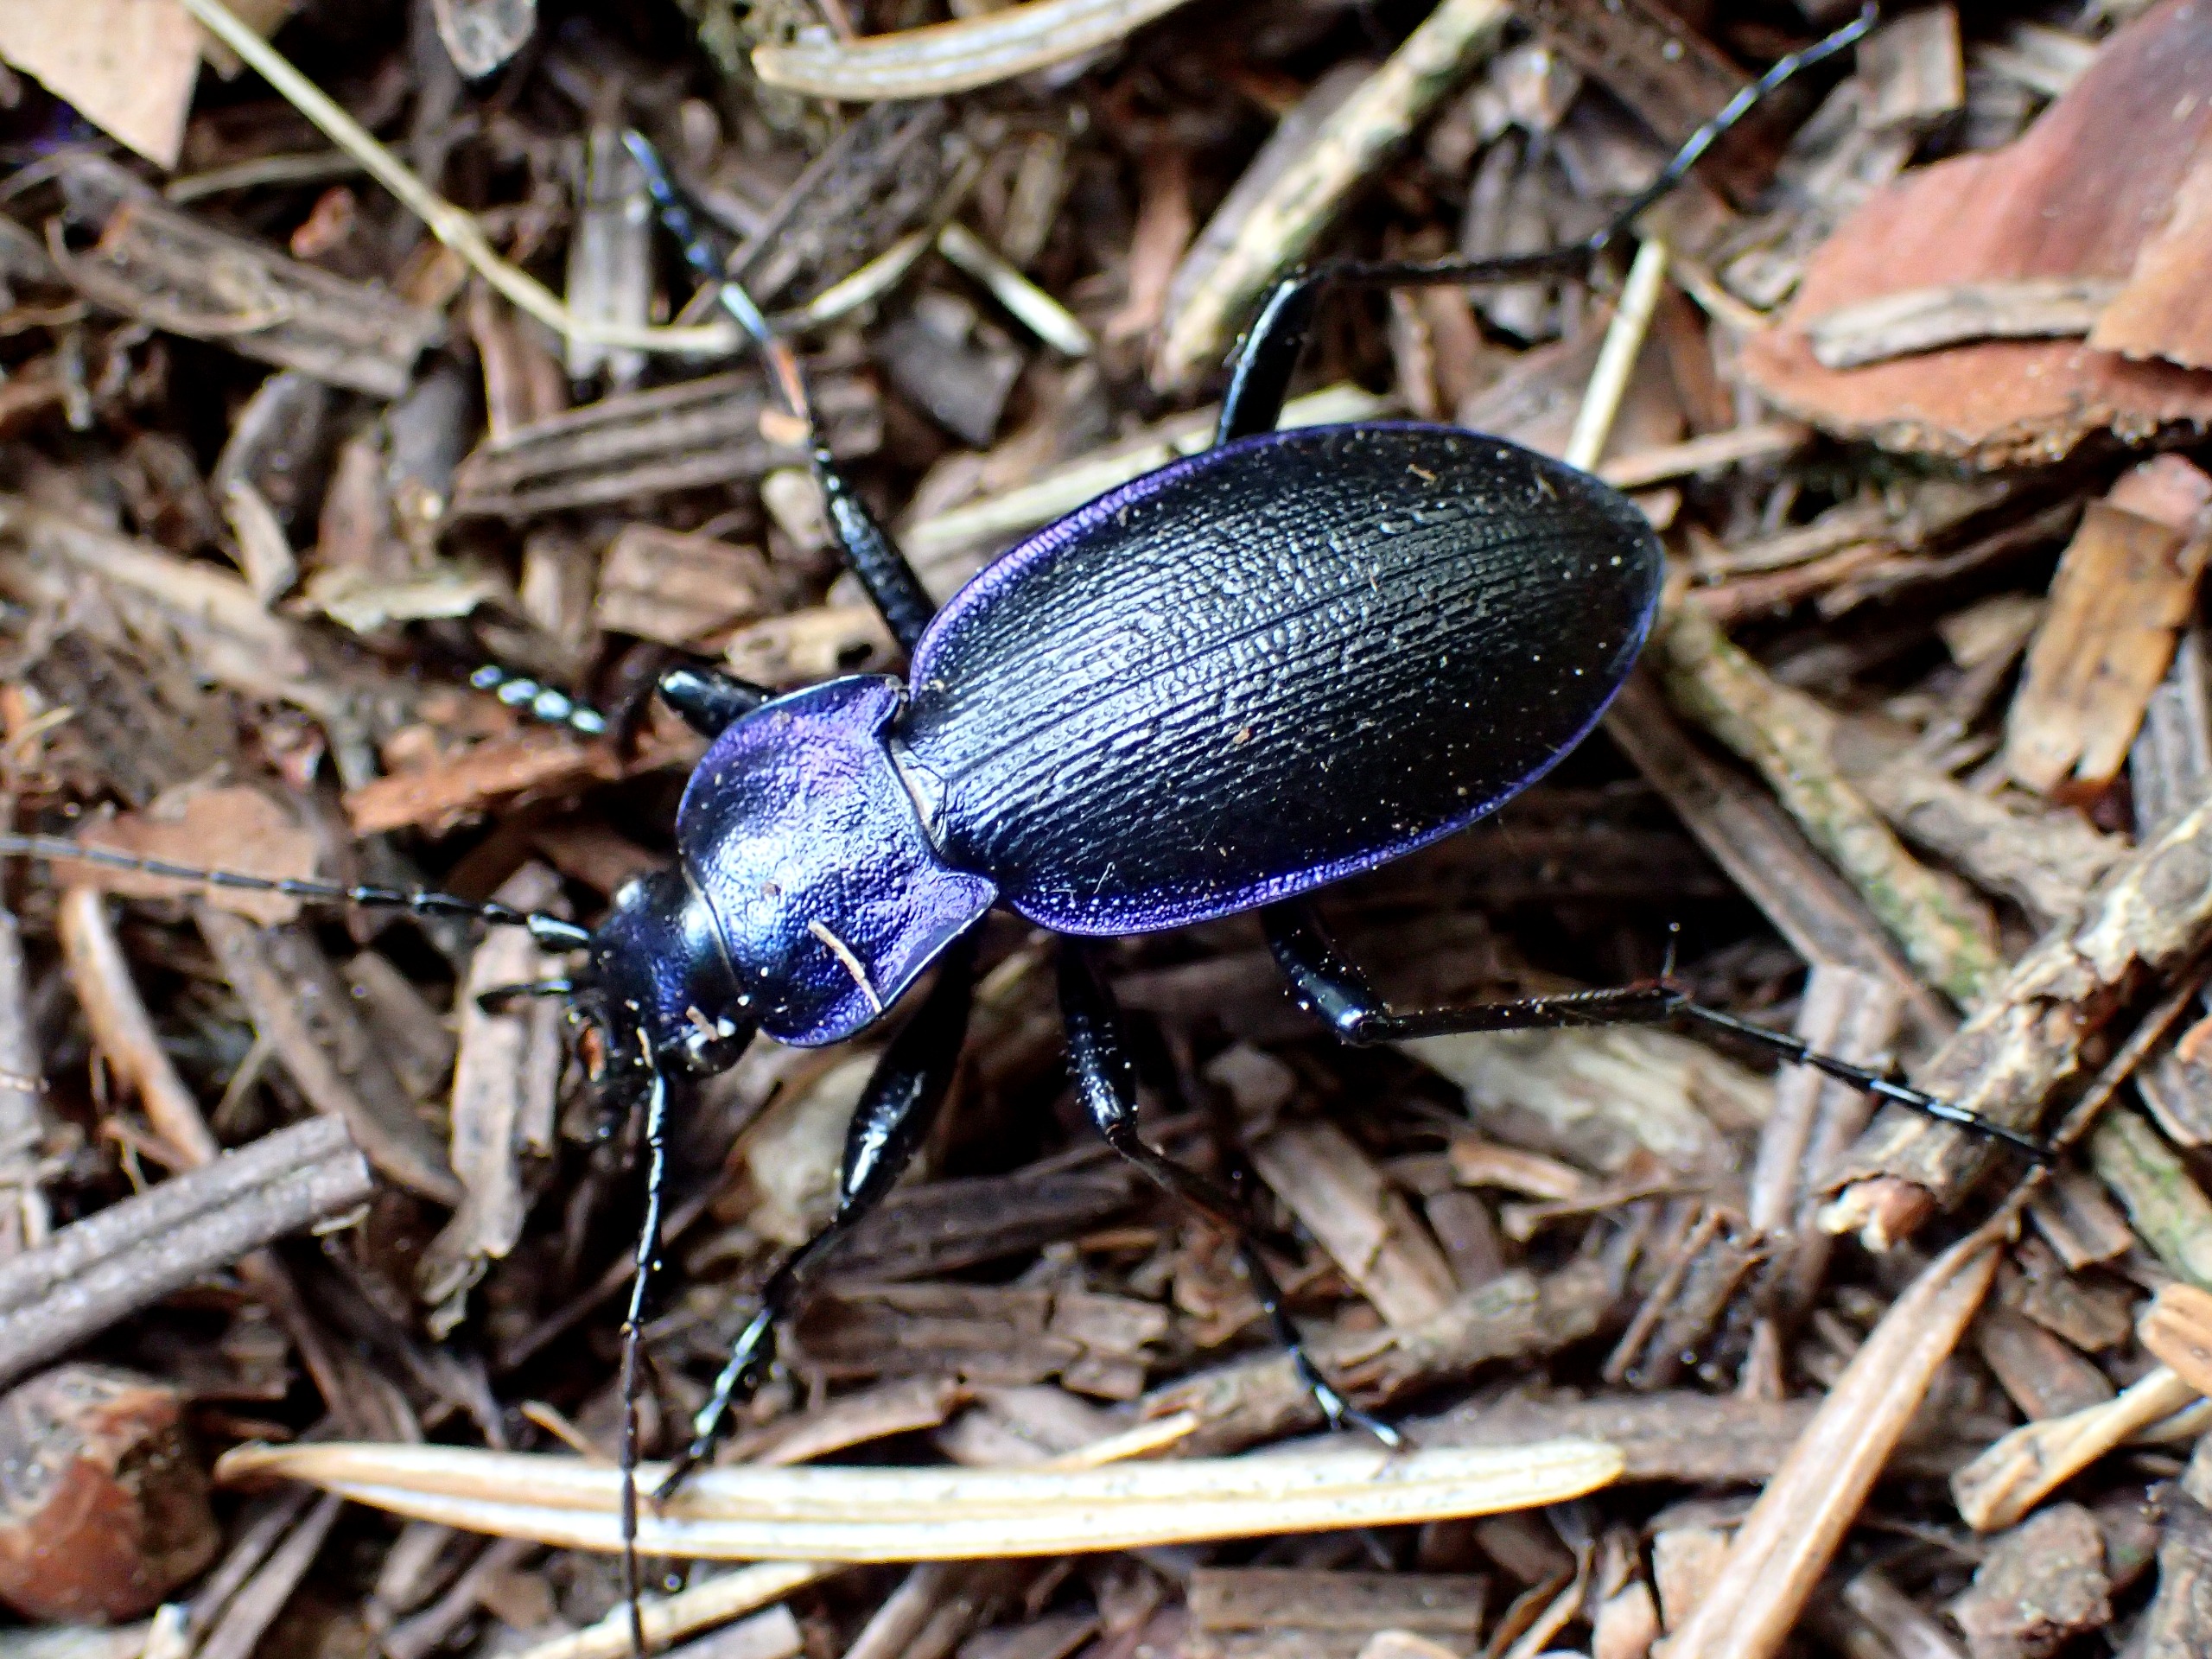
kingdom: Animalia
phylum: Arthropoda
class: Insecta
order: Coleoptera
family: Carabidae
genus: Carabus
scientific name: Carabus problematicus
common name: Jysk løber
